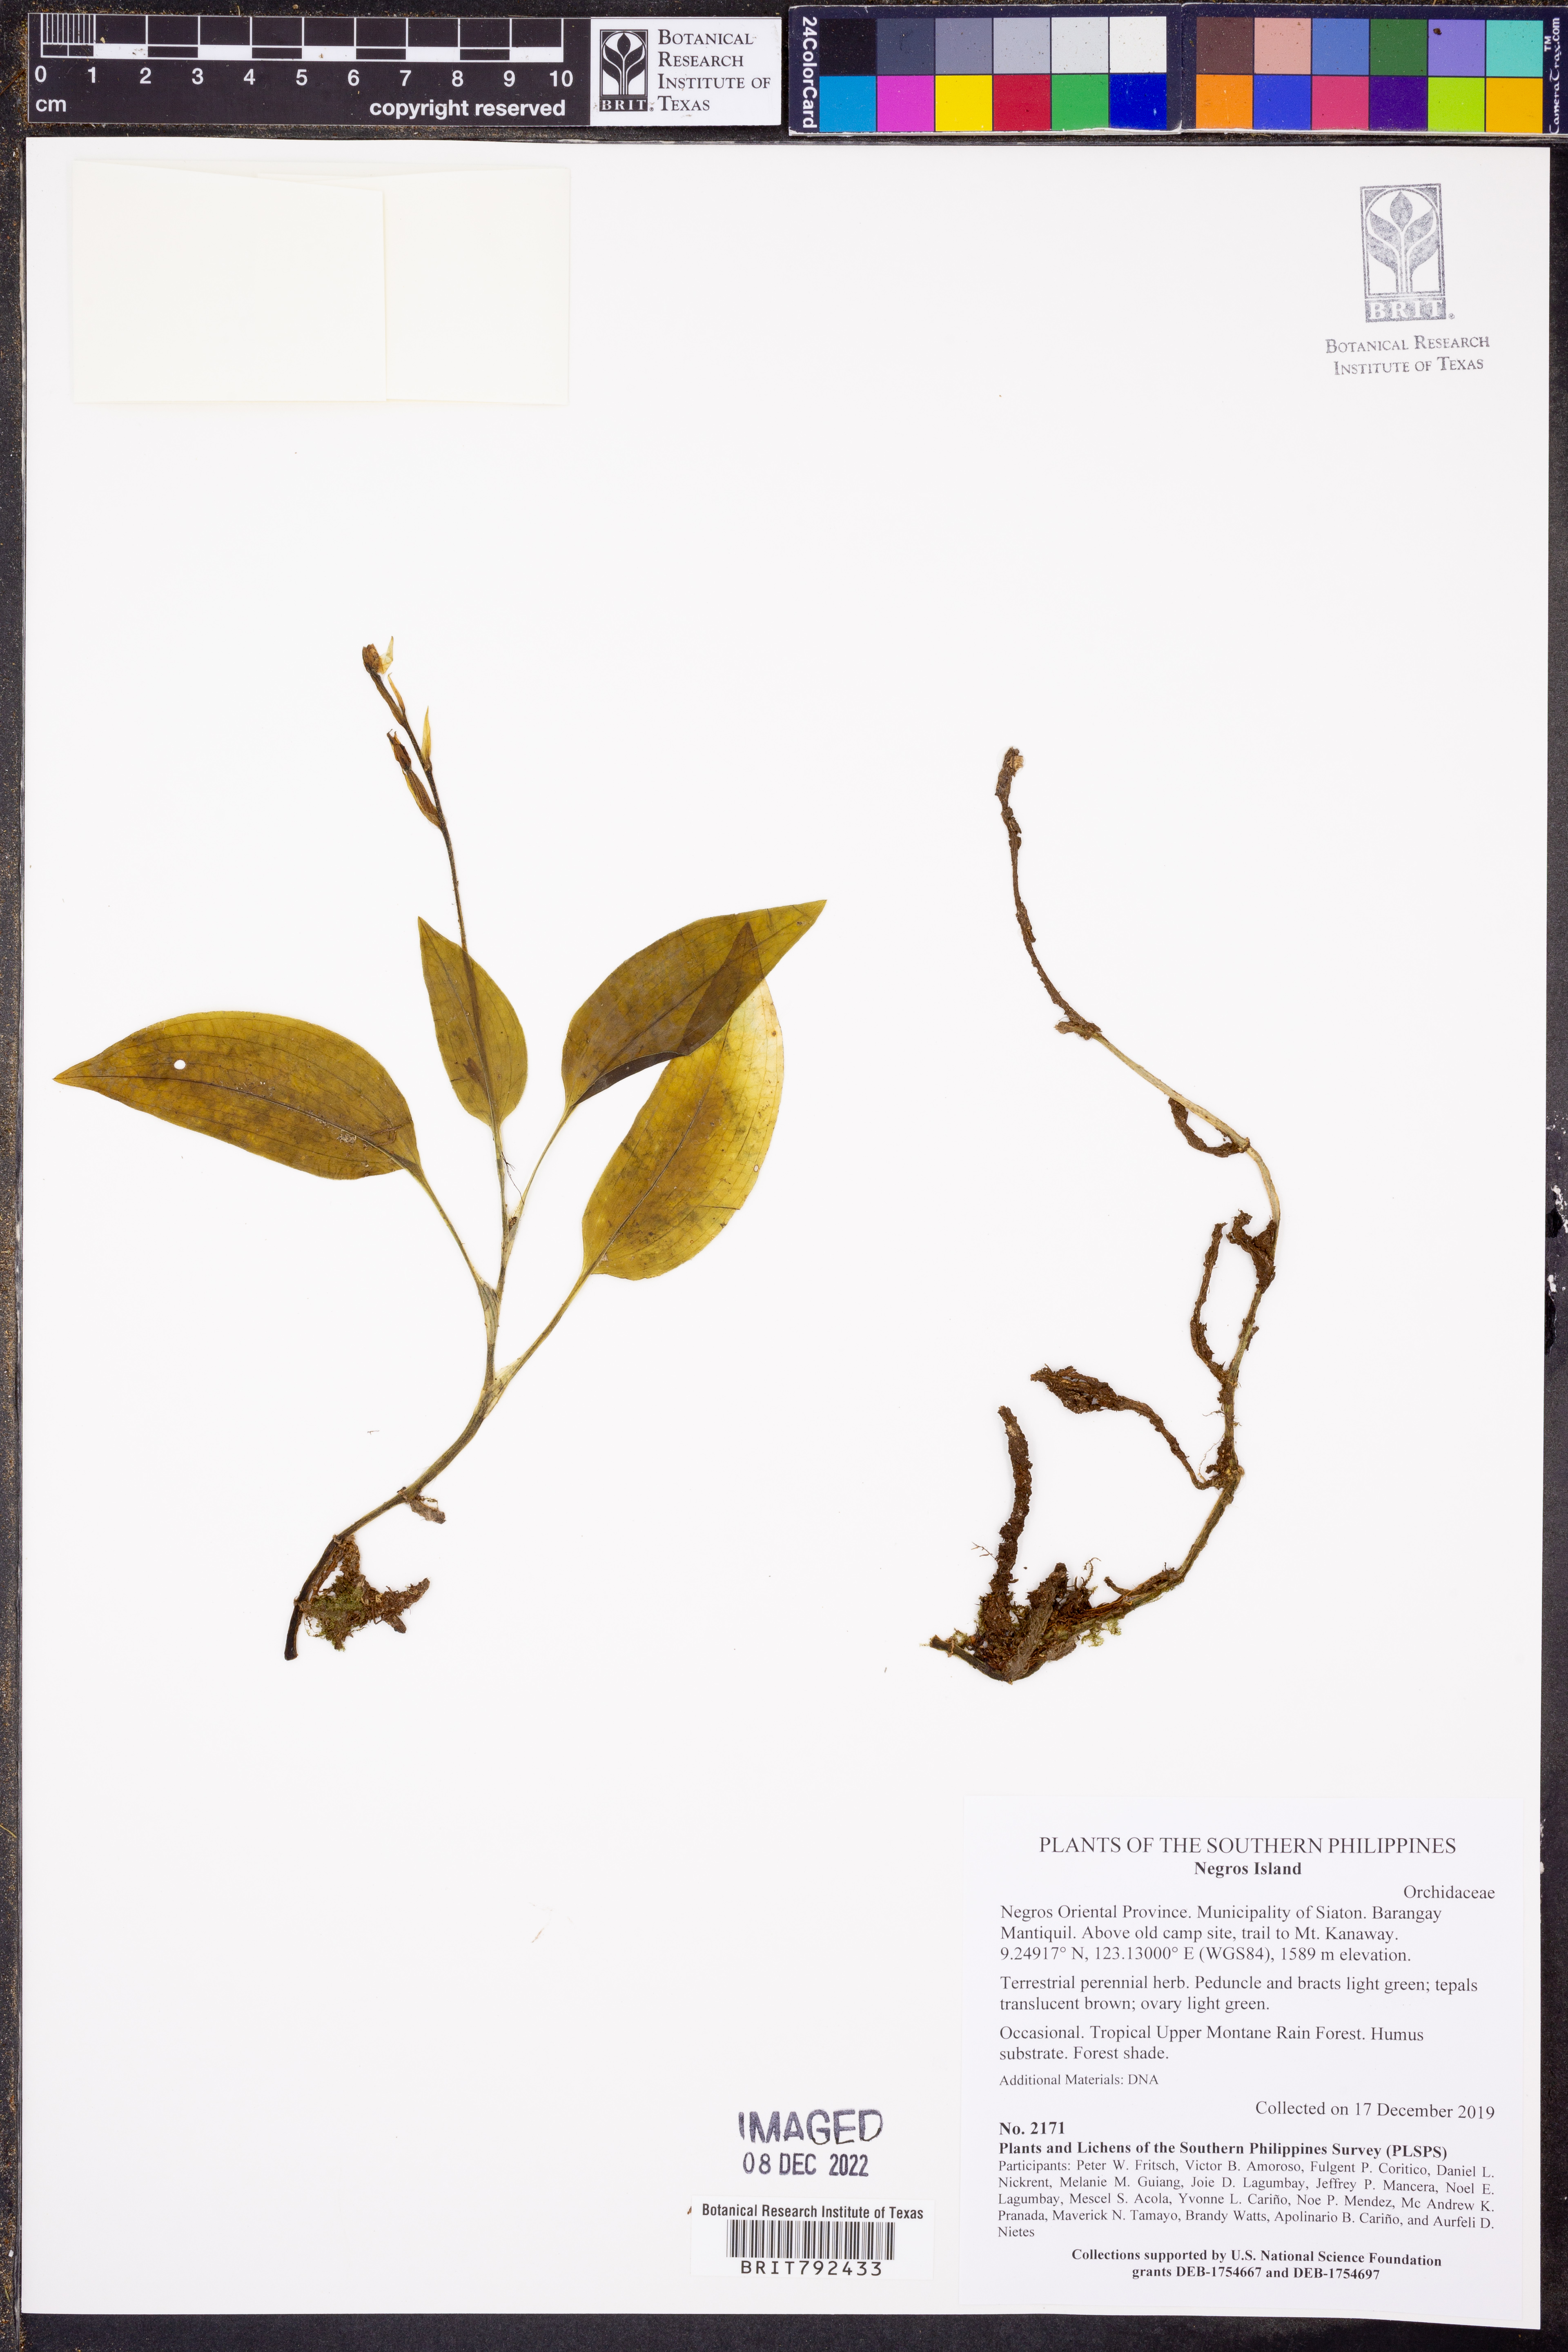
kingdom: Plantae
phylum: Tracheophyta
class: Liliopsida
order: Asparagales
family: Orchidaceae
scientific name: Orchidaceae
